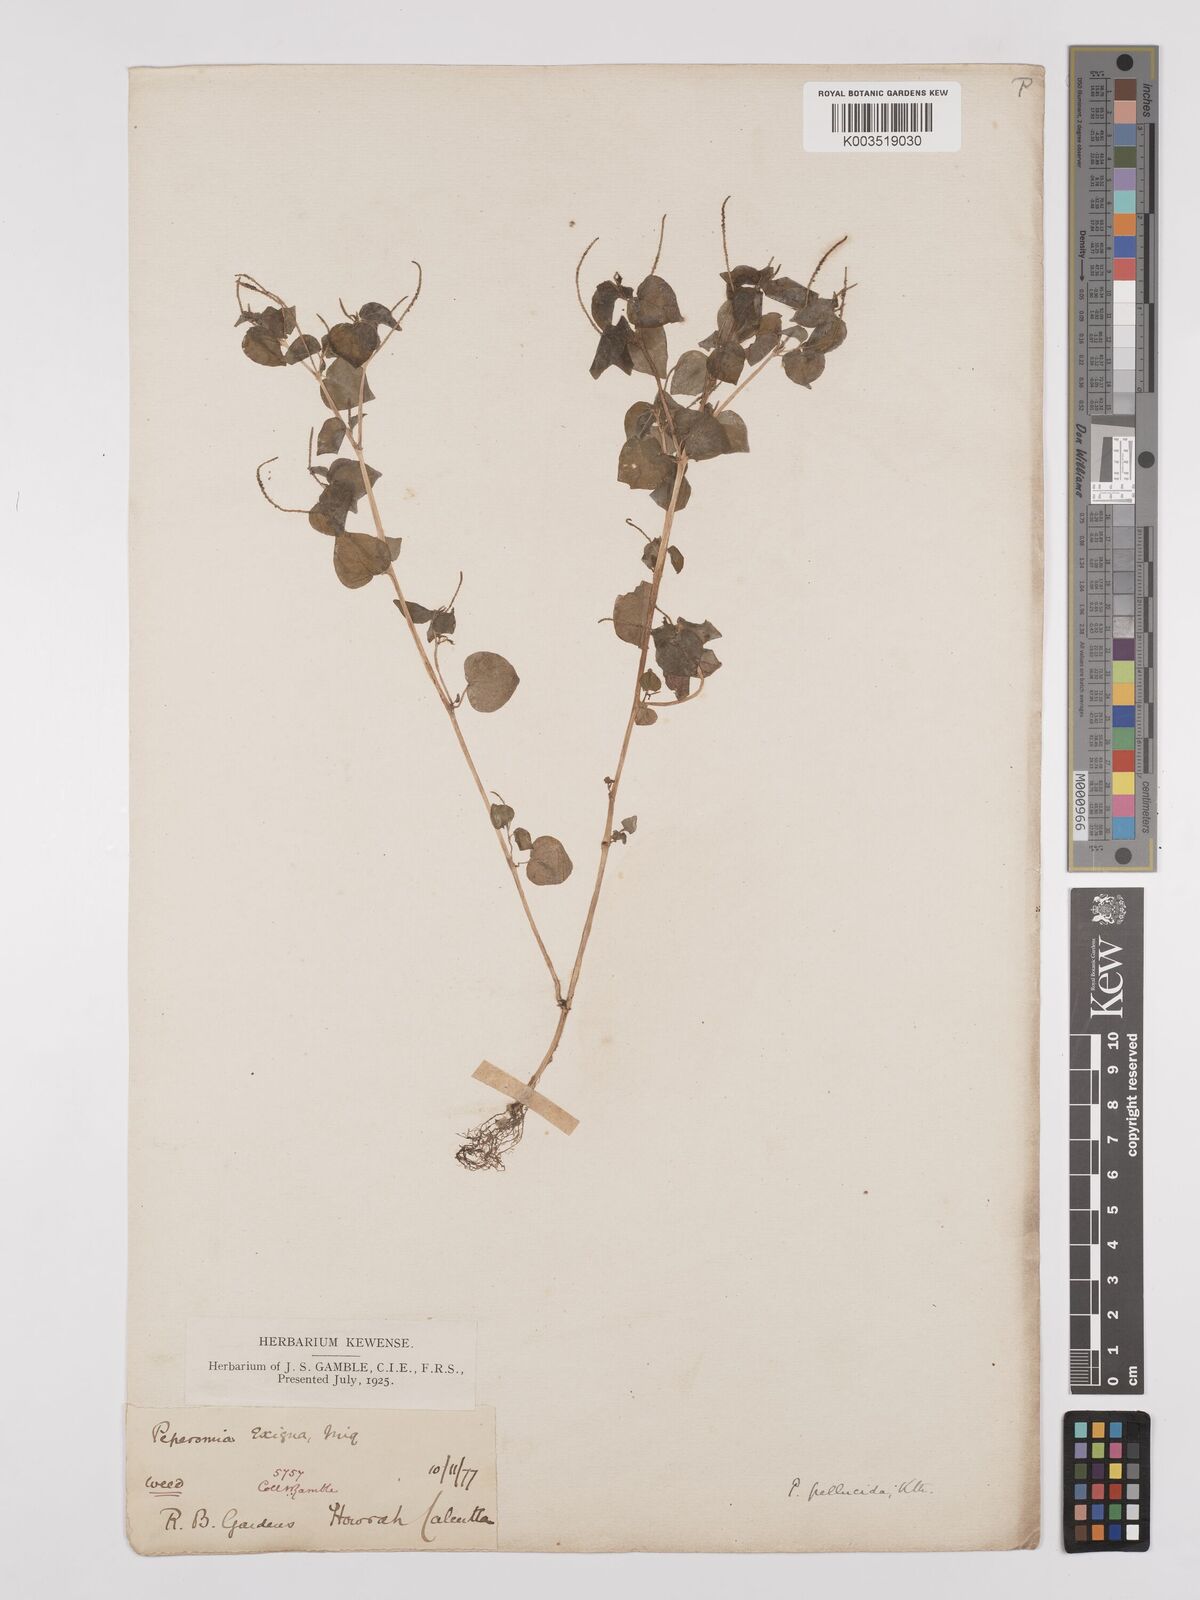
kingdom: Plantae
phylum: Tracheophyta
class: Magnoliopsida
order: Piperales
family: Piperaceae
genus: Peperomia
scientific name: Peperomia pellucida
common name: Man to man
